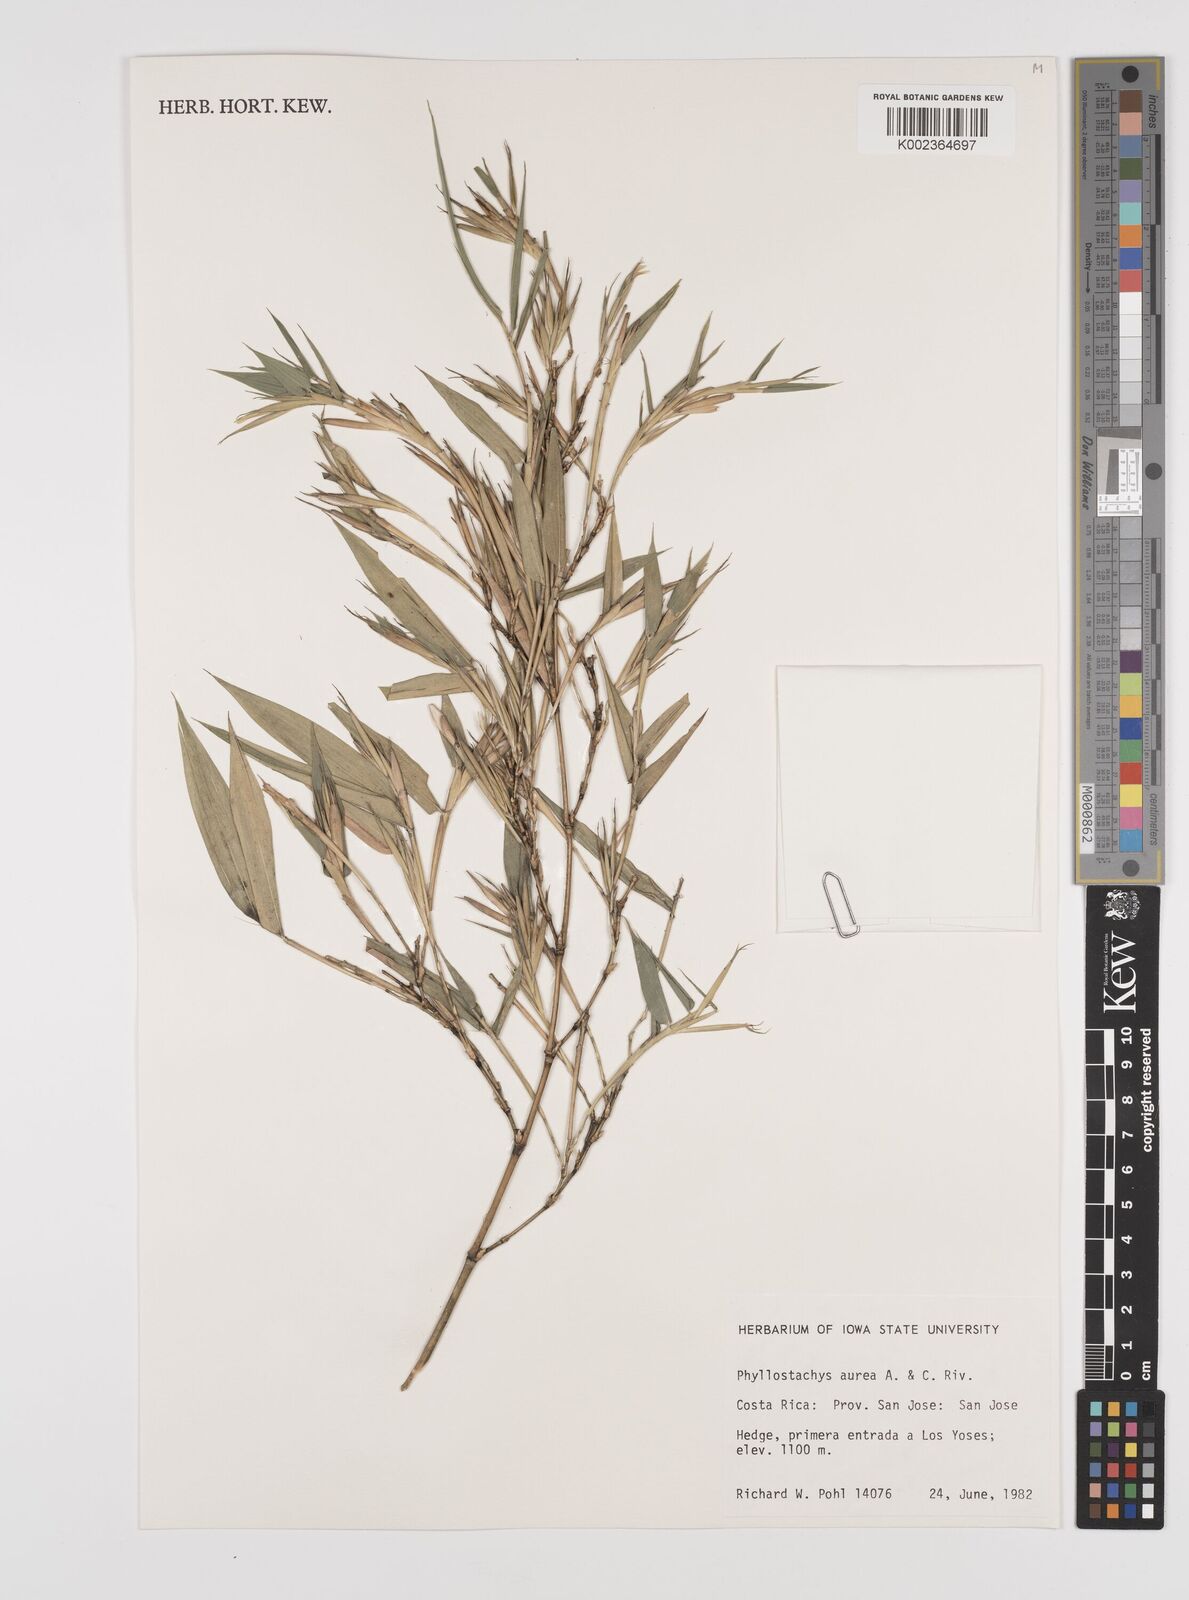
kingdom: Plantae
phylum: Tracheophyta
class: Liliopsida
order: Poales
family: Poaceae
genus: Phyllostachys
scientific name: Phyllostachys aurea
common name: Golden bamboo
